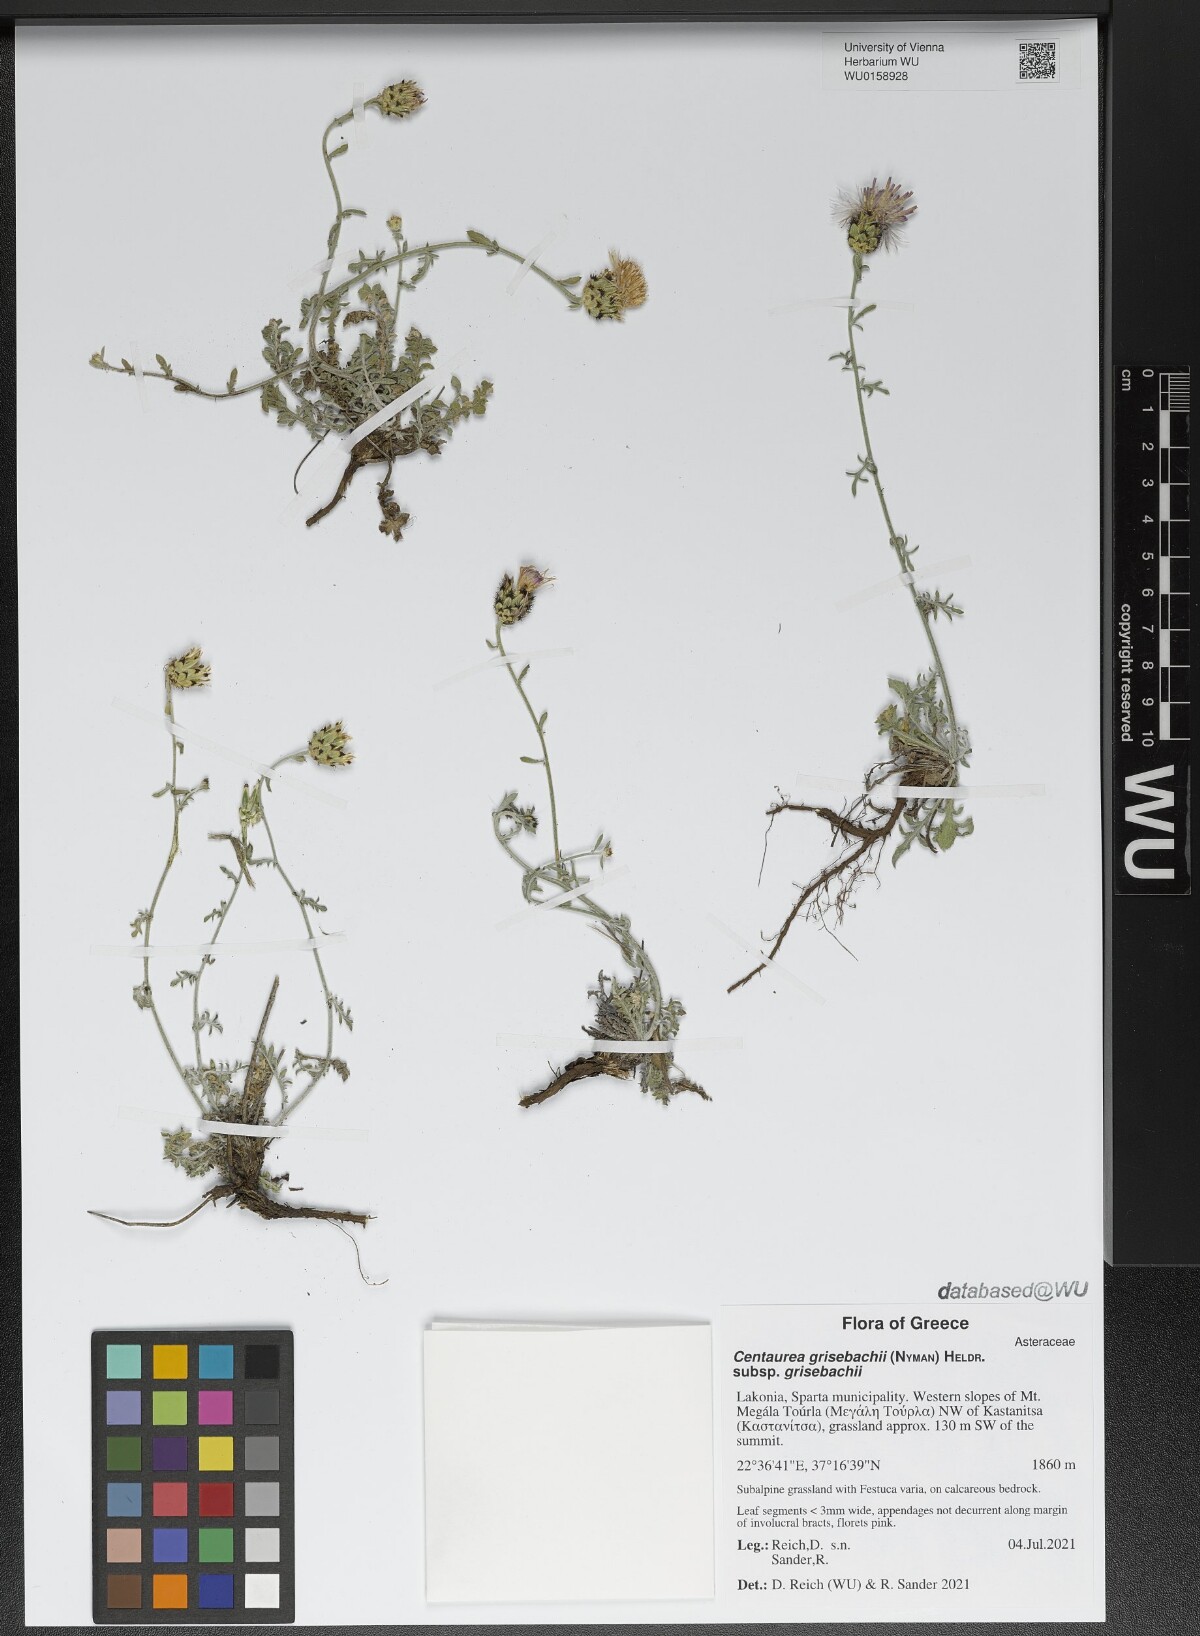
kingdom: Plantae
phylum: Tracheophyta
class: Magnoliopsida
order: Asterales
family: Asteraceae
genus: Centaurea
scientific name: Centaurea grisebachii
